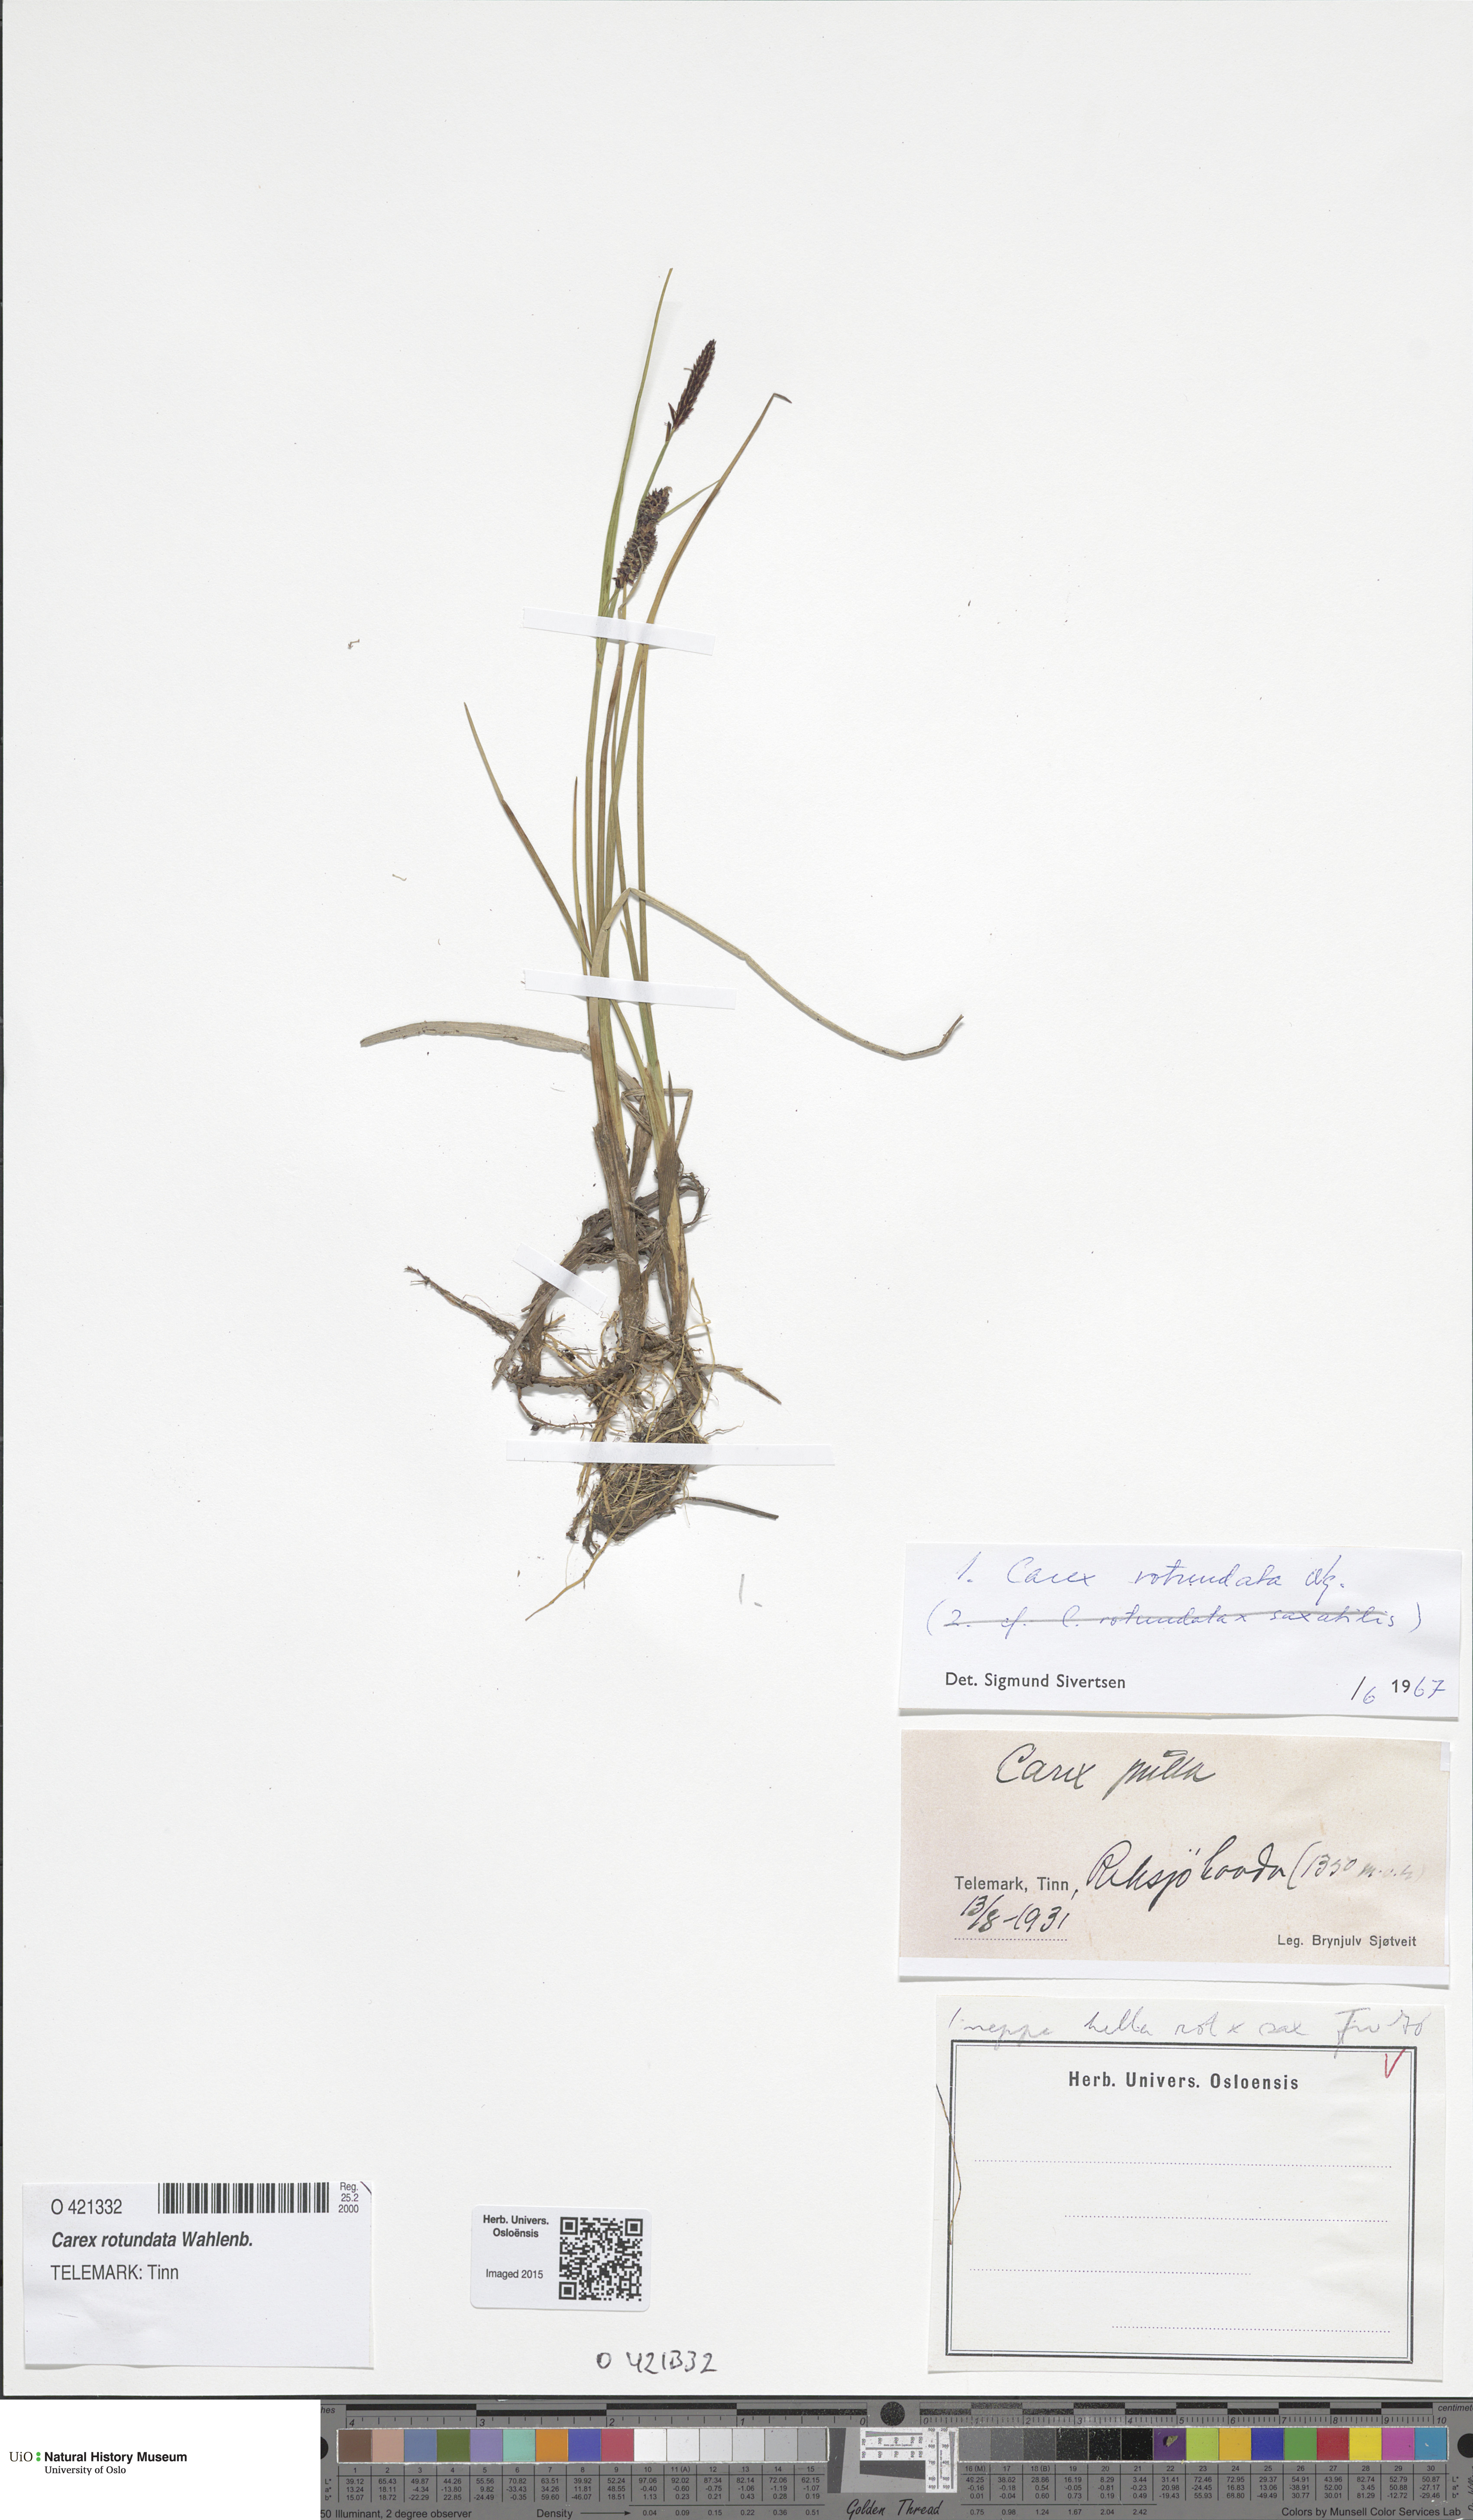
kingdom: Plantae
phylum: Tracheophyta
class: Liliopsida
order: Poales
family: Cyperaceae
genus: Carex
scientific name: Carex rotundata
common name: Round-fruited sedge
